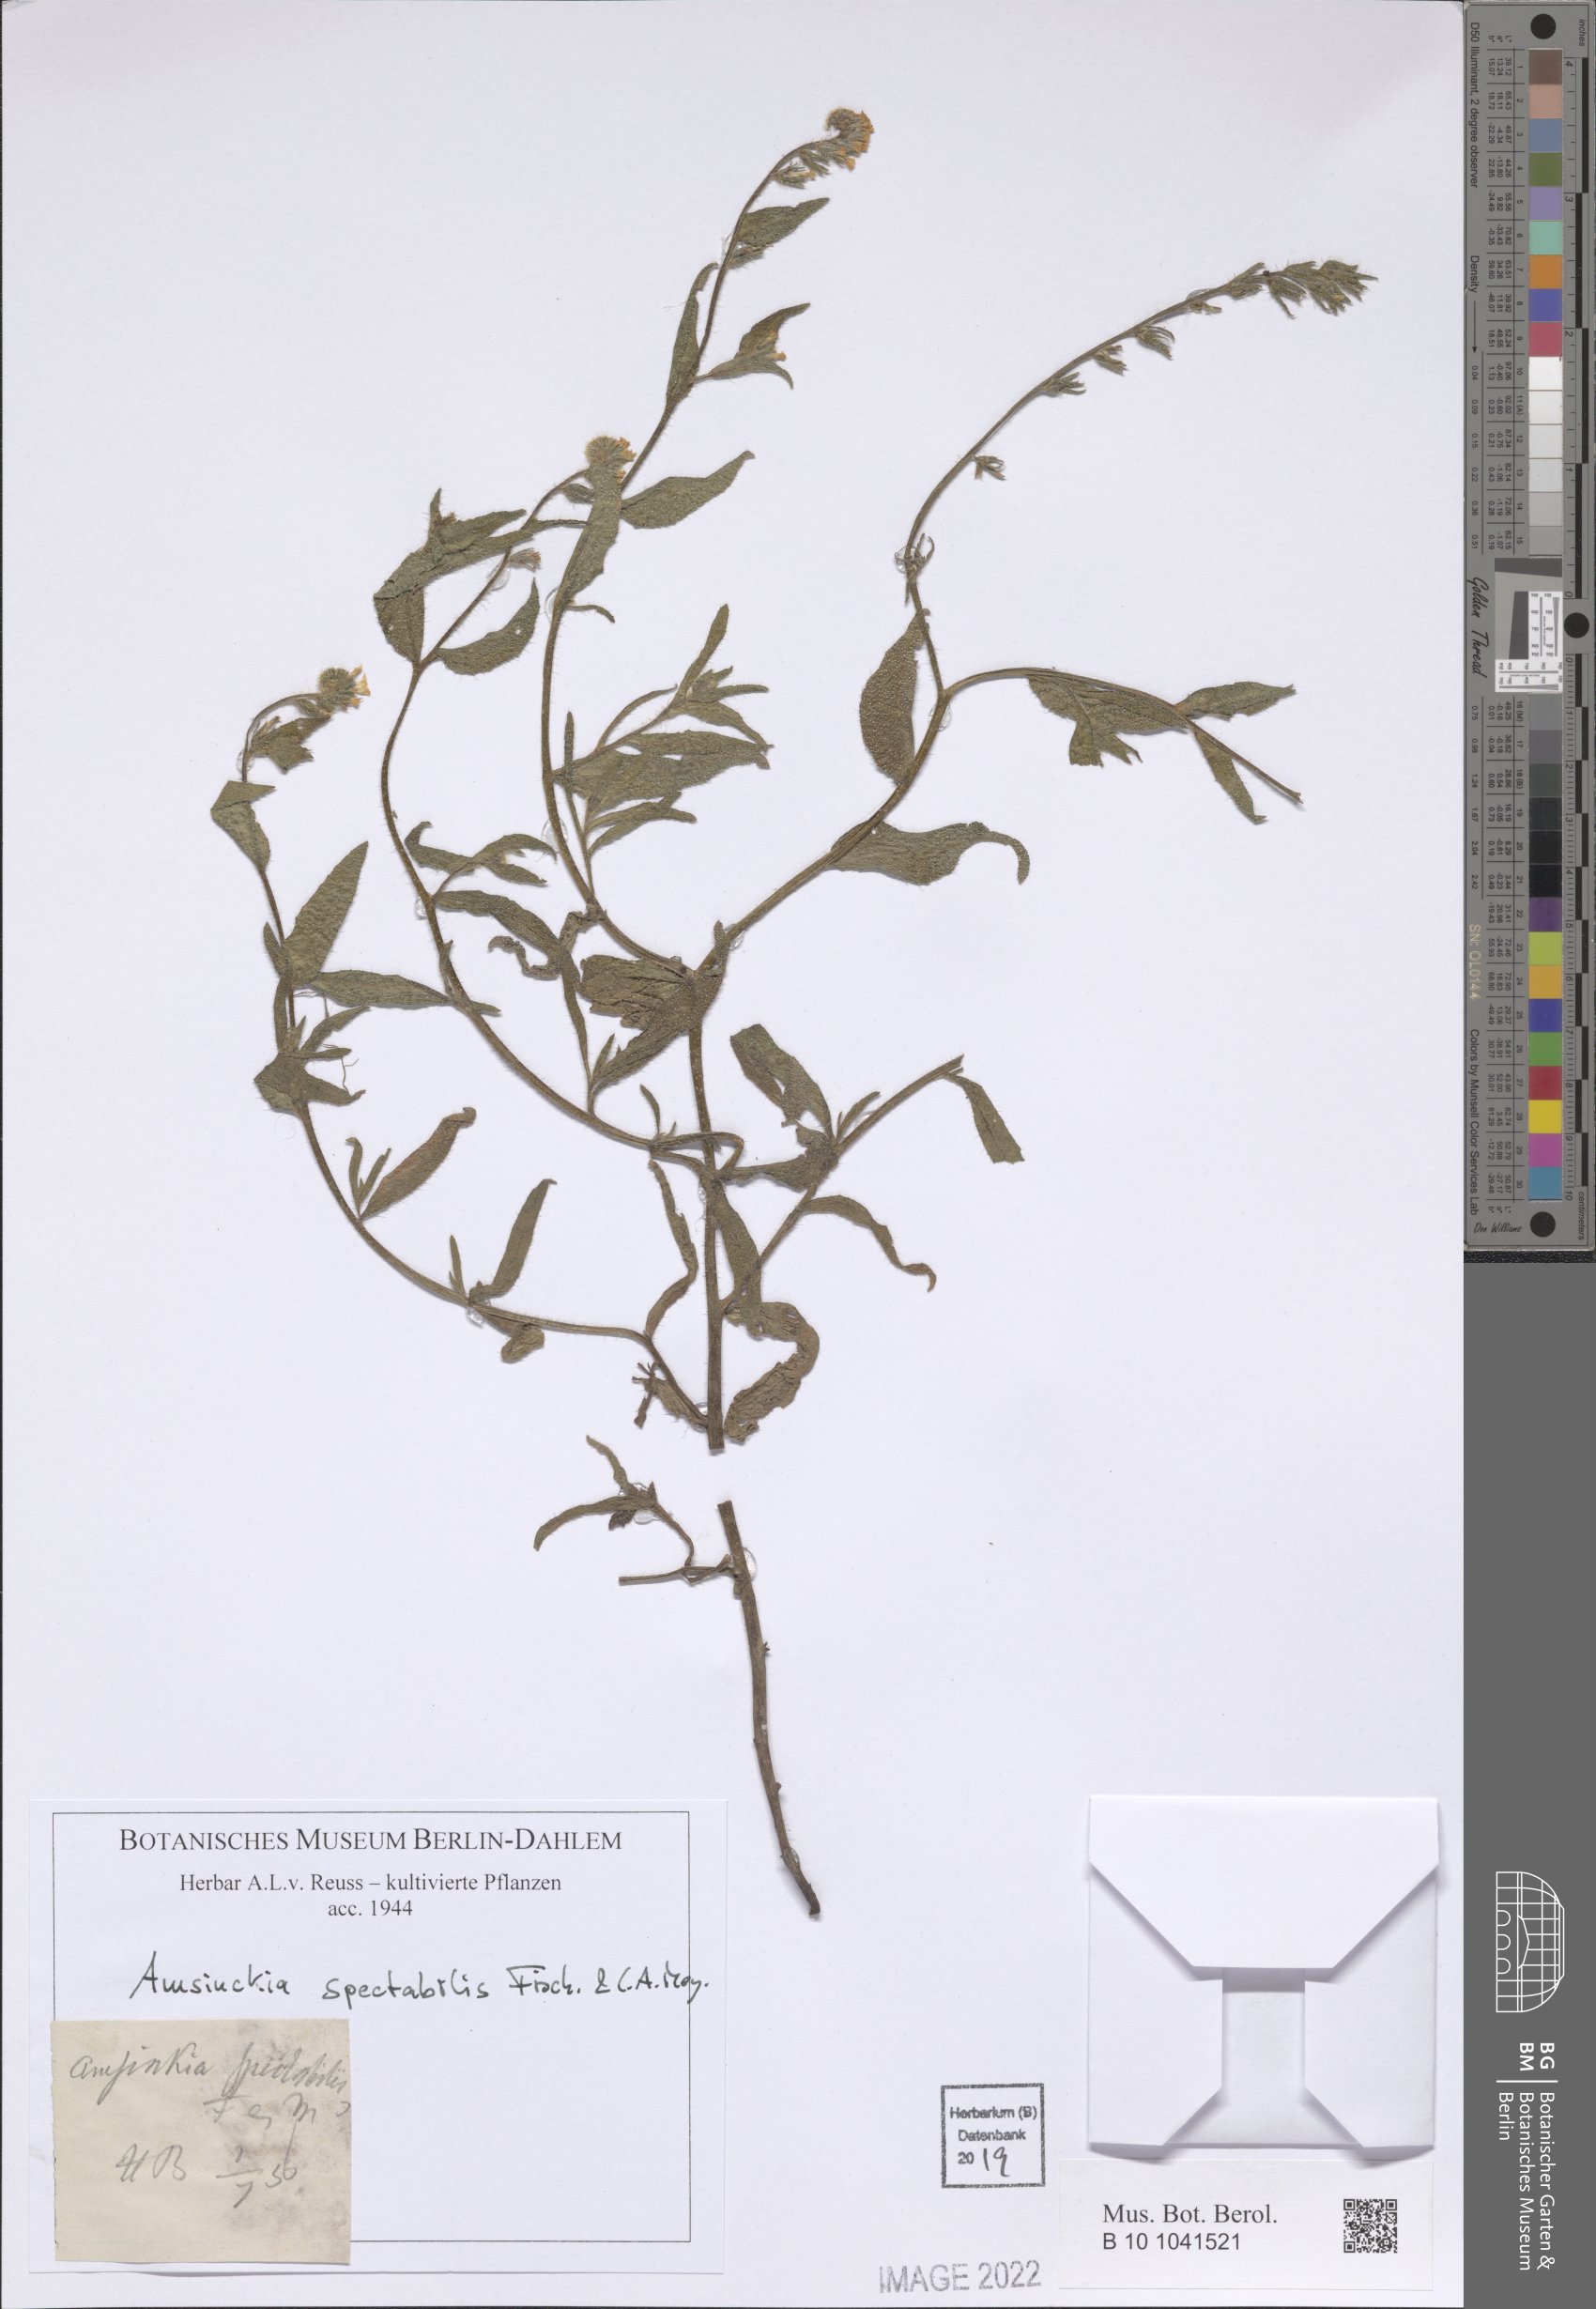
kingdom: Plantae
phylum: Tracheophyta
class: Magnoliopsida
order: Boraginales
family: Boraginaceae
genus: Amsinckia
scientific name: Amsinckia spectabilis
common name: Seaside fiddleneck
